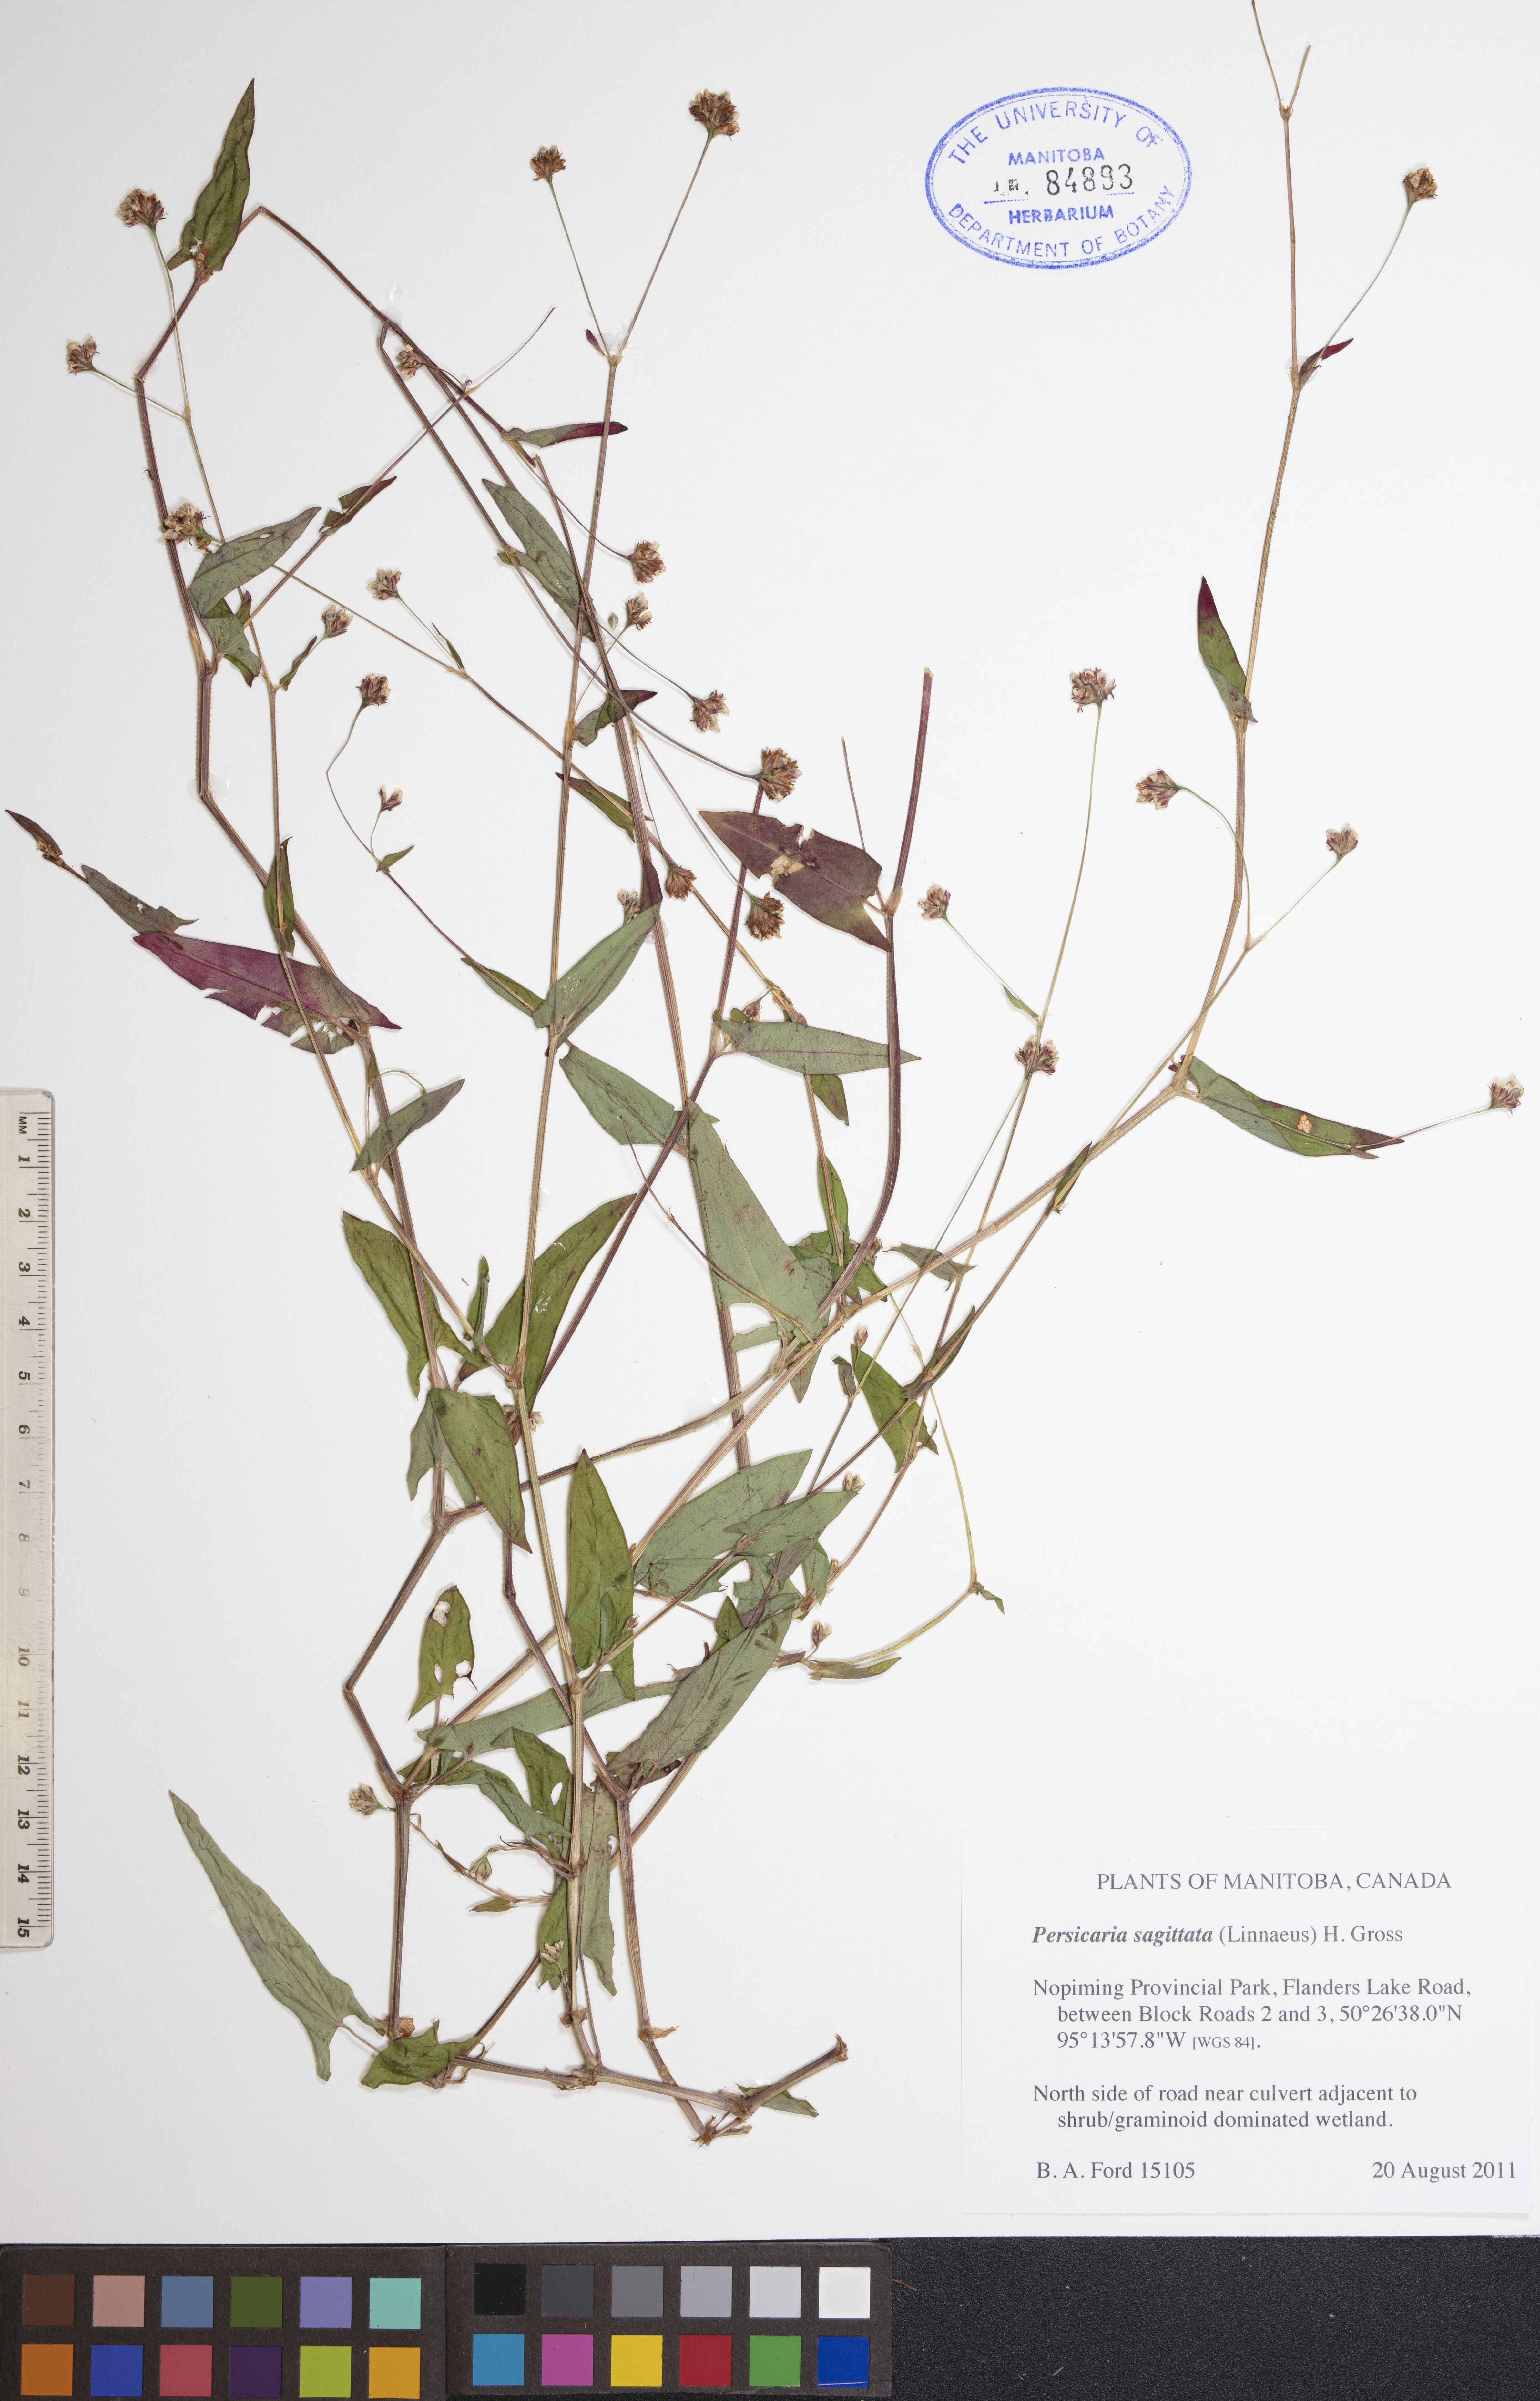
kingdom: Plantae
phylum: Tracheophyta
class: Magnoliopsida
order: Caryophyllales
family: Polygonaceae
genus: Persicaria
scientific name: Persicaria sagittata
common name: American tearthumb
